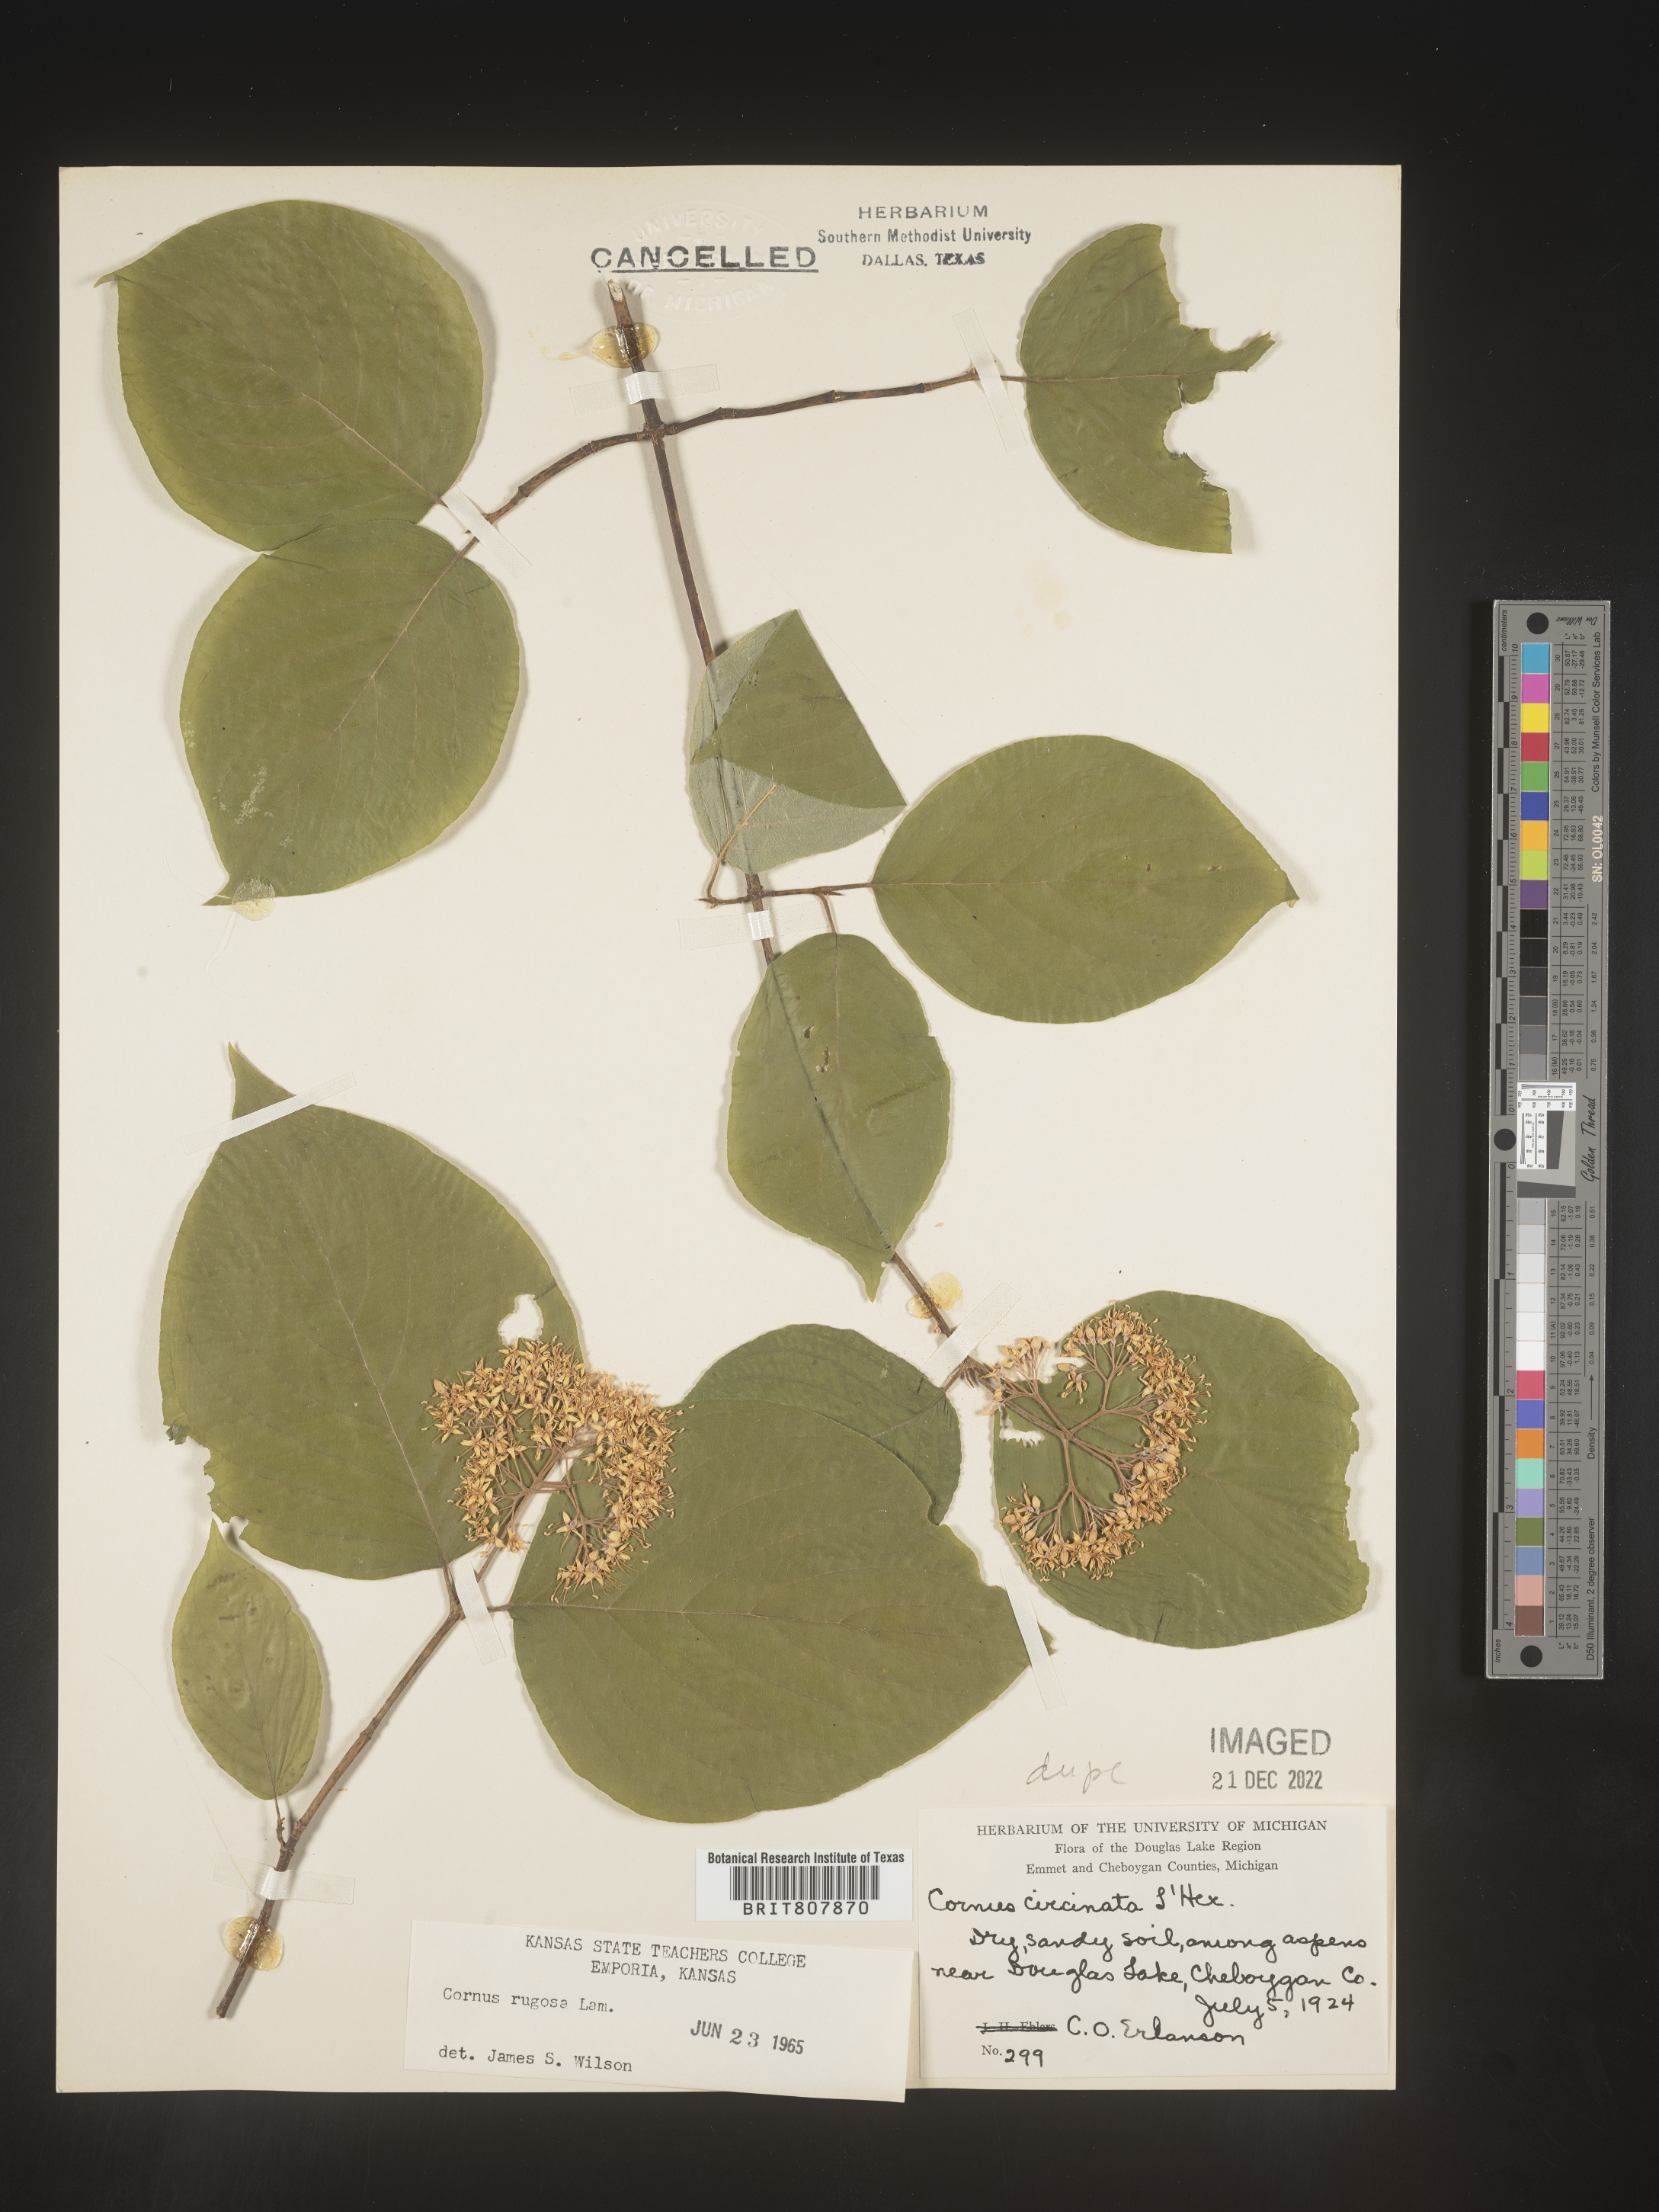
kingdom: Plantae
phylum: Tracheophyta
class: Magnoliopsida
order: Cornales
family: Cornaceae
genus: Cornus
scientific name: Cornus rugosa
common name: Round-leaf dogwood
